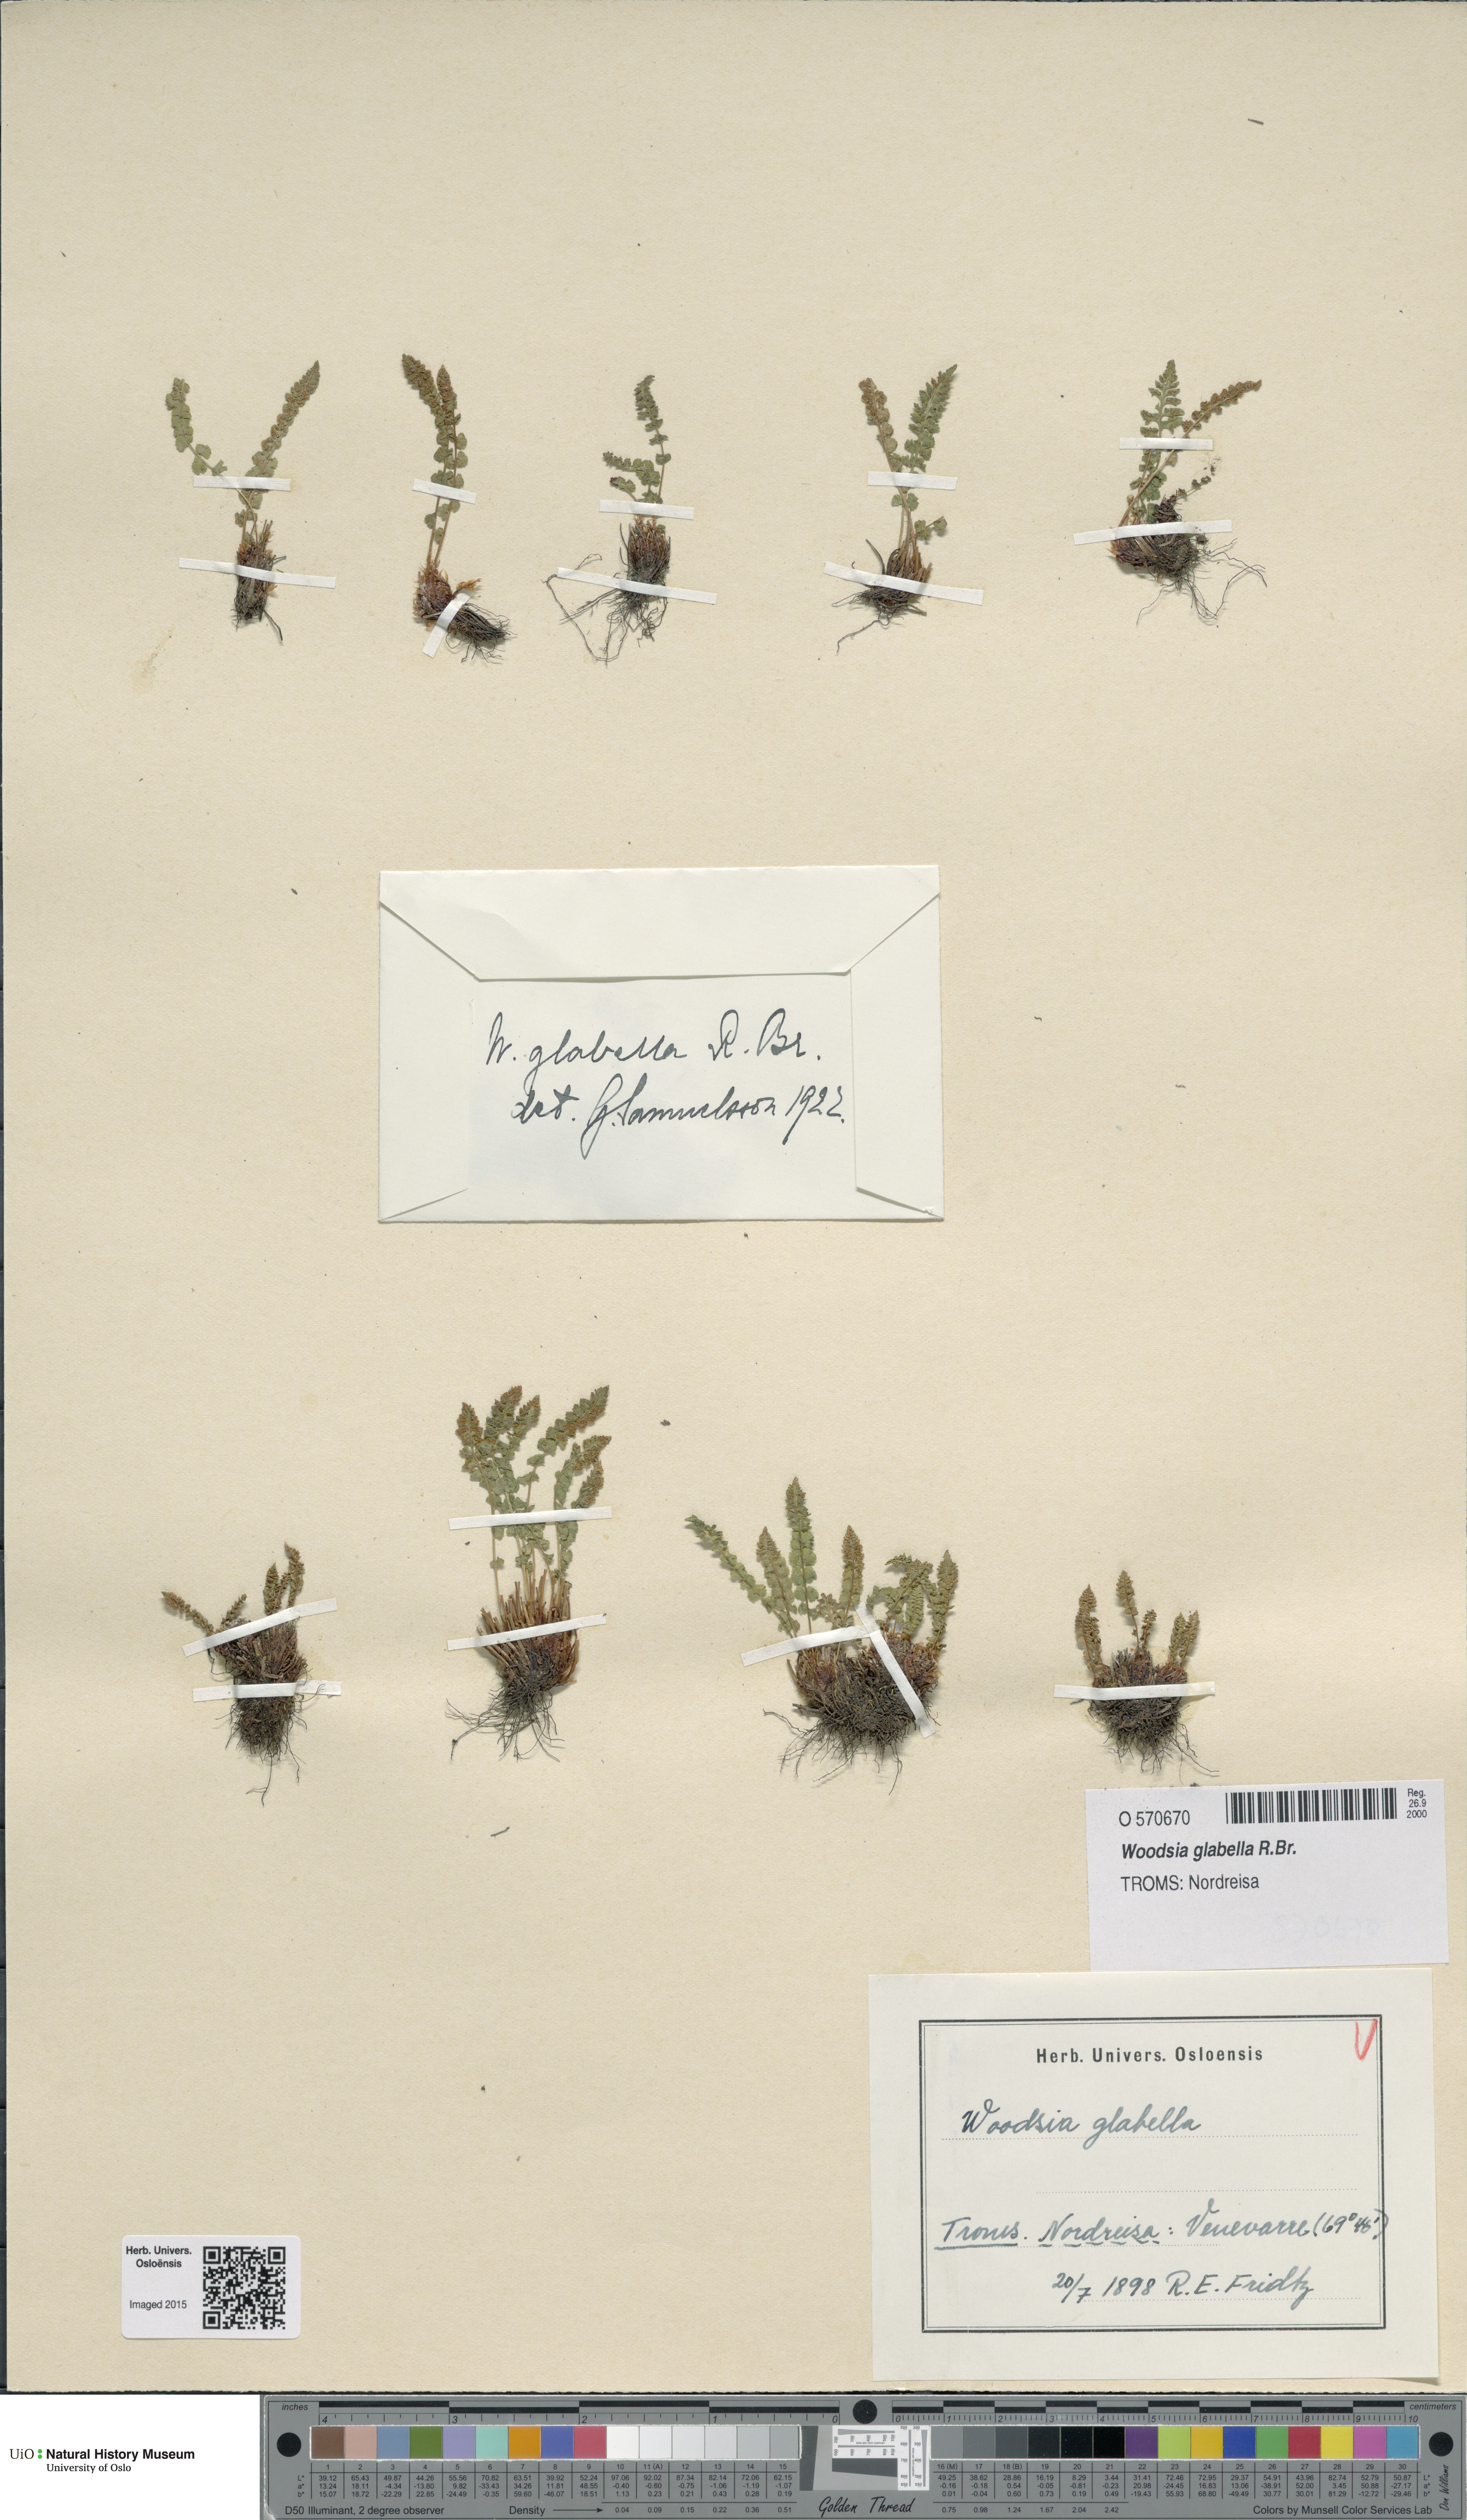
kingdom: Plantae
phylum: Tracheophyta
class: Polypodiopsida
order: Polypodiales
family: Woodsiaceae
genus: Woodsia
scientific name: Woodsia glabella
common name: Smooth woodsia
